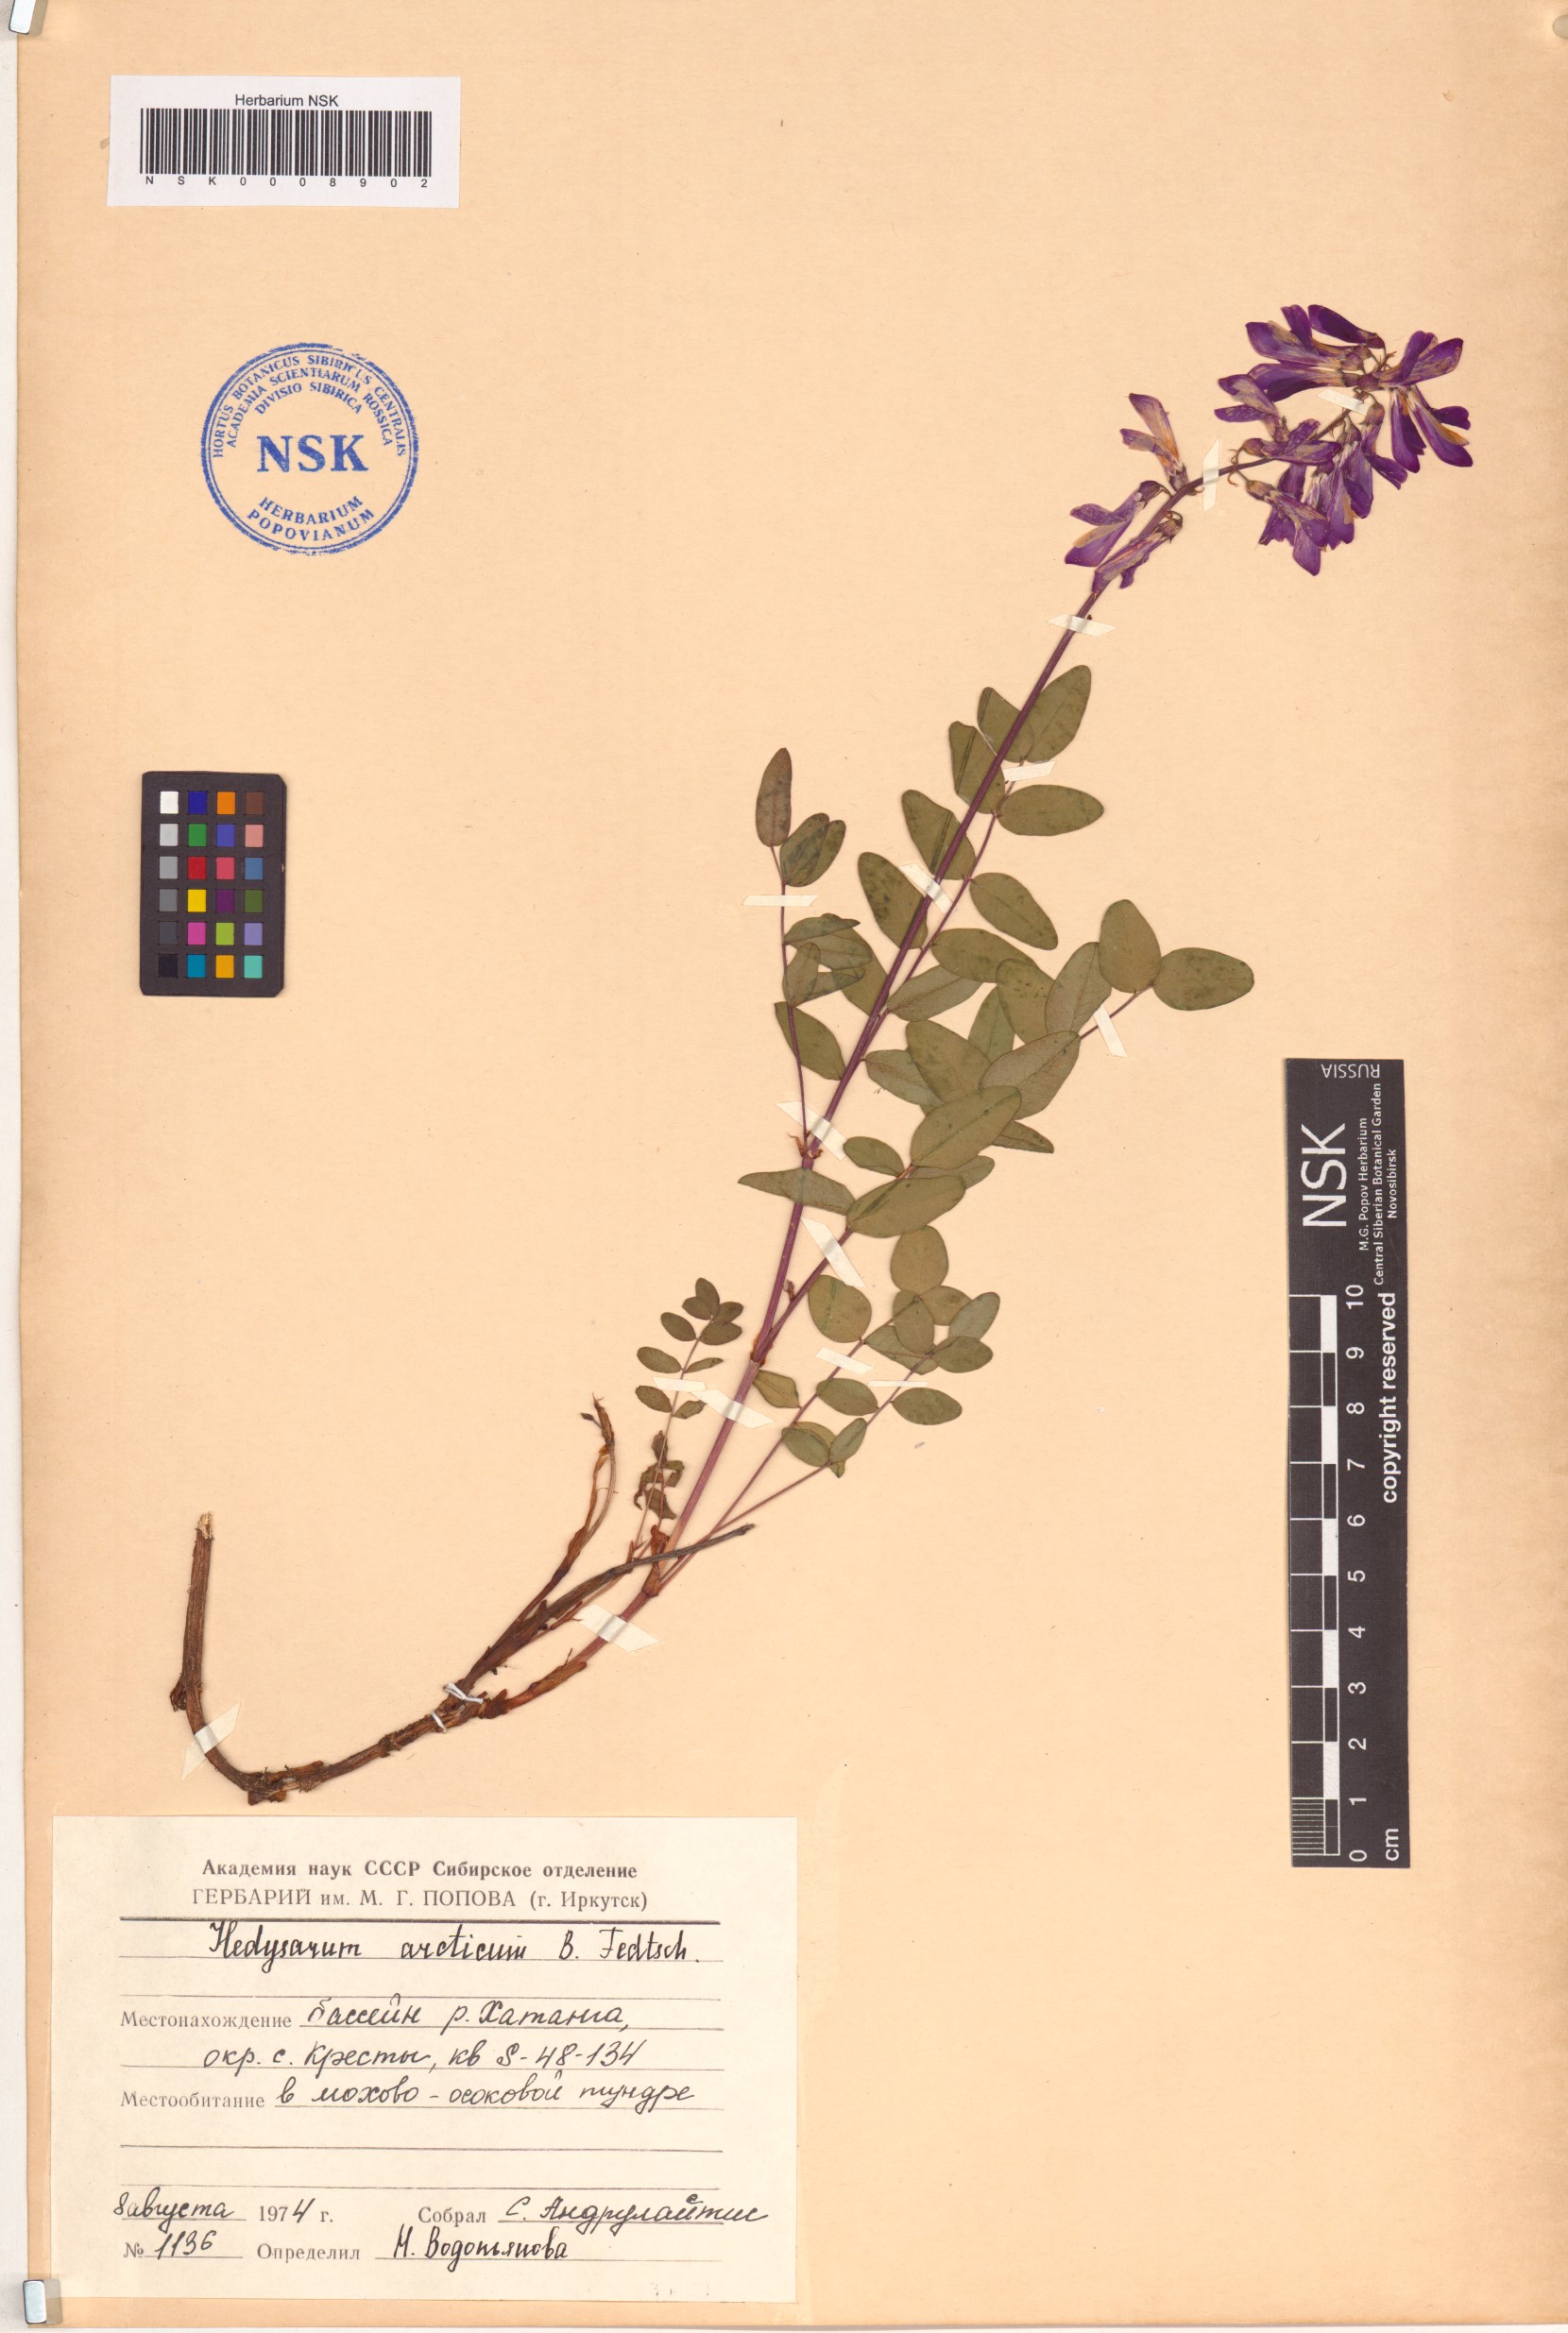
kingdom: Plantae
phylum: Tracheophyta
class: Magnoliopsida
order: Fabales
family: Fabaceae
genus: Hedysarum
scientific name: Hedysarum hedysaroides
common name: Alpine french-honeysuckle
